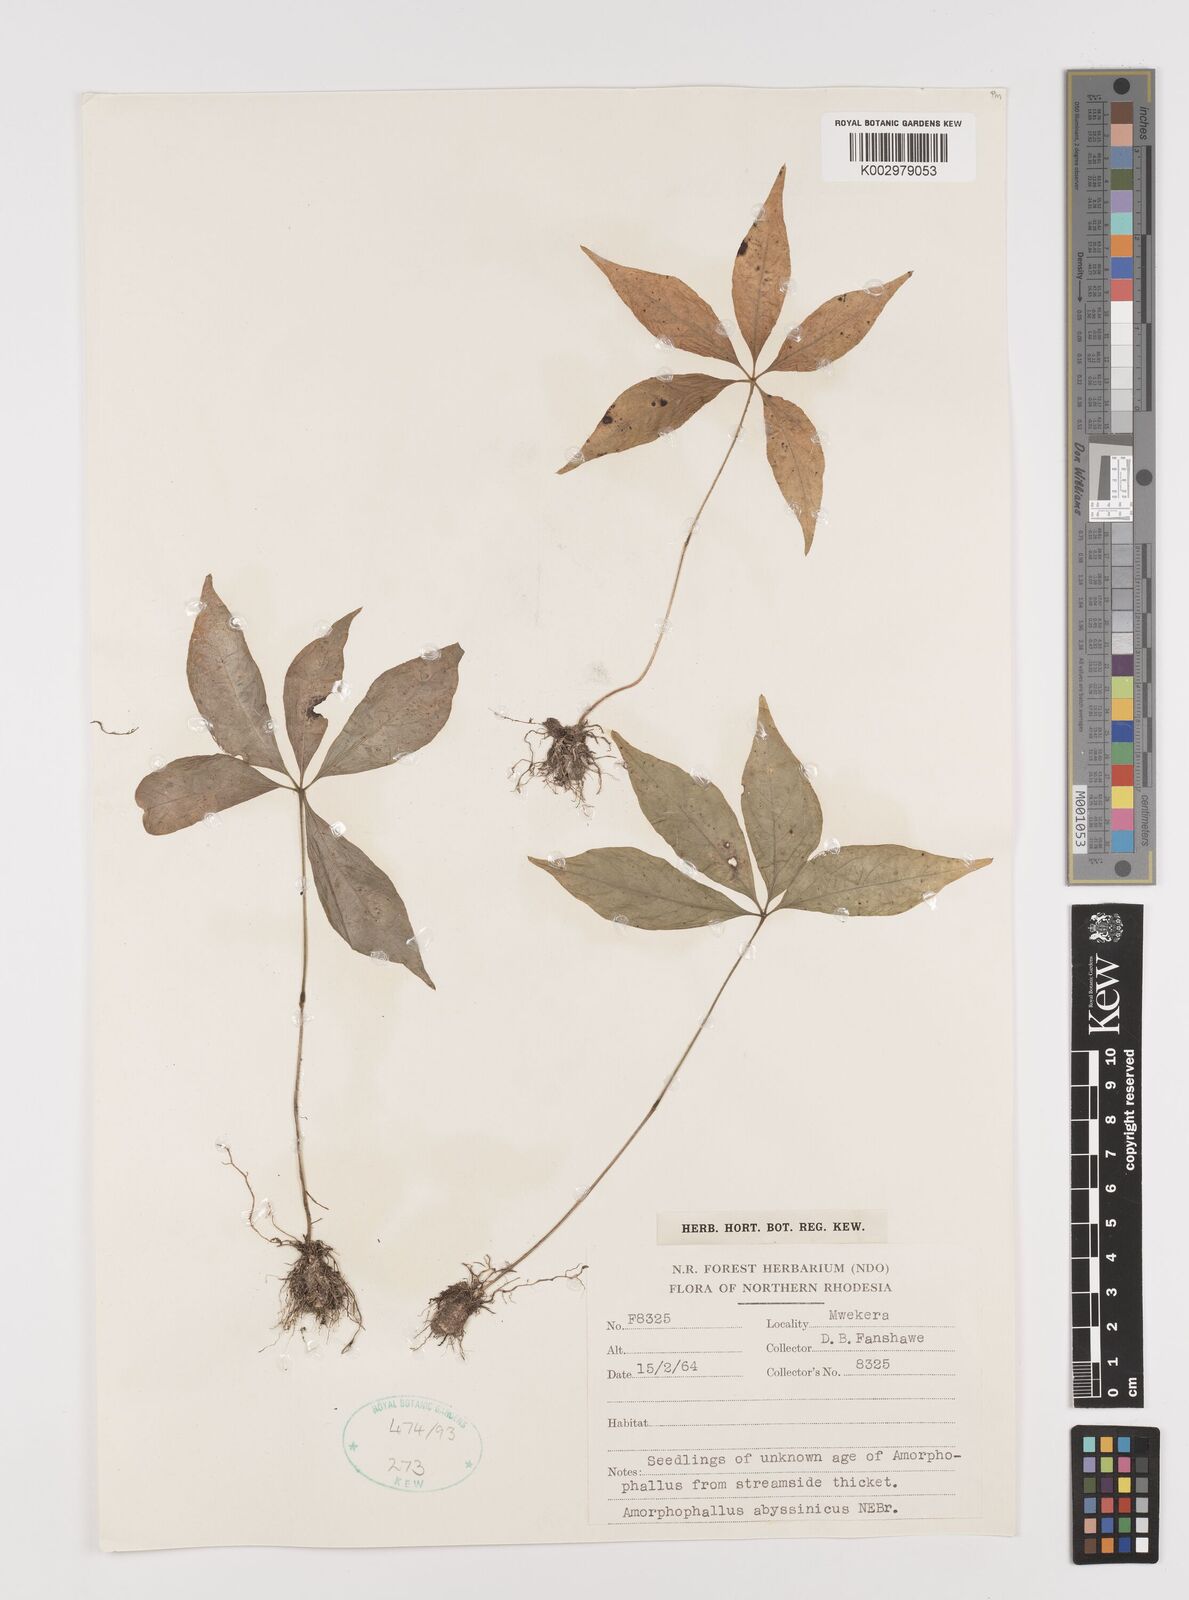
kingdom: Plantae
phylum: Tracheophyta
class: Liliopsida
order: Alismatales
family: Araceae
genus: Amorphophallus
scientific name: Amorphophallus abyssinicus
